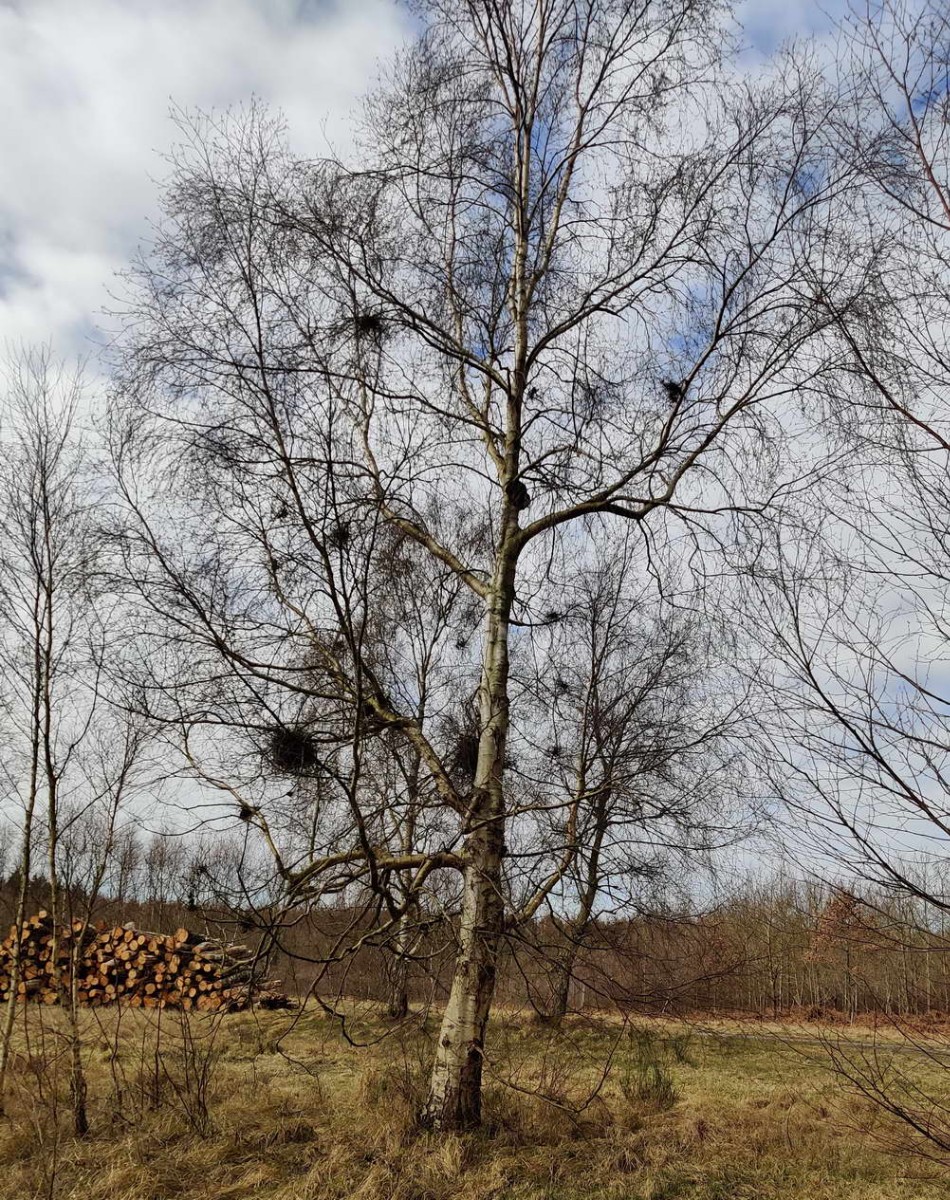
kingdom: Fungi
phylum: Ascomycota
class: Taphrinomycetes
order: Taphrinales
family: Taphrinaceae
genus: Taphrina
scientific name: Taphrina betulina
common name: hekse-sækdug
